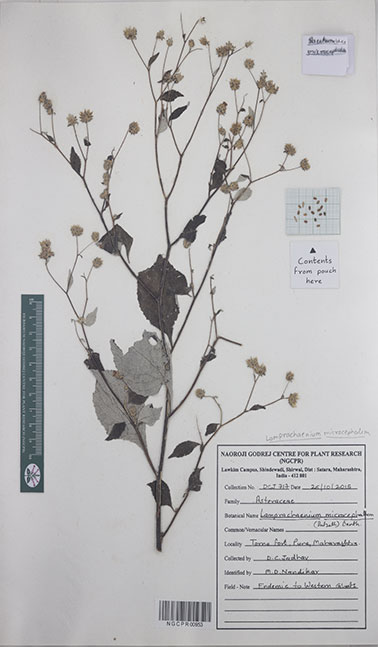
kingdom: Plantae
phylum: Tracheophyta
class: Magnoliopsida
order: Asterales
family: Asteraceae
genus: Phyllocephalum
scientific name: Phyllocephalum microcephalum
